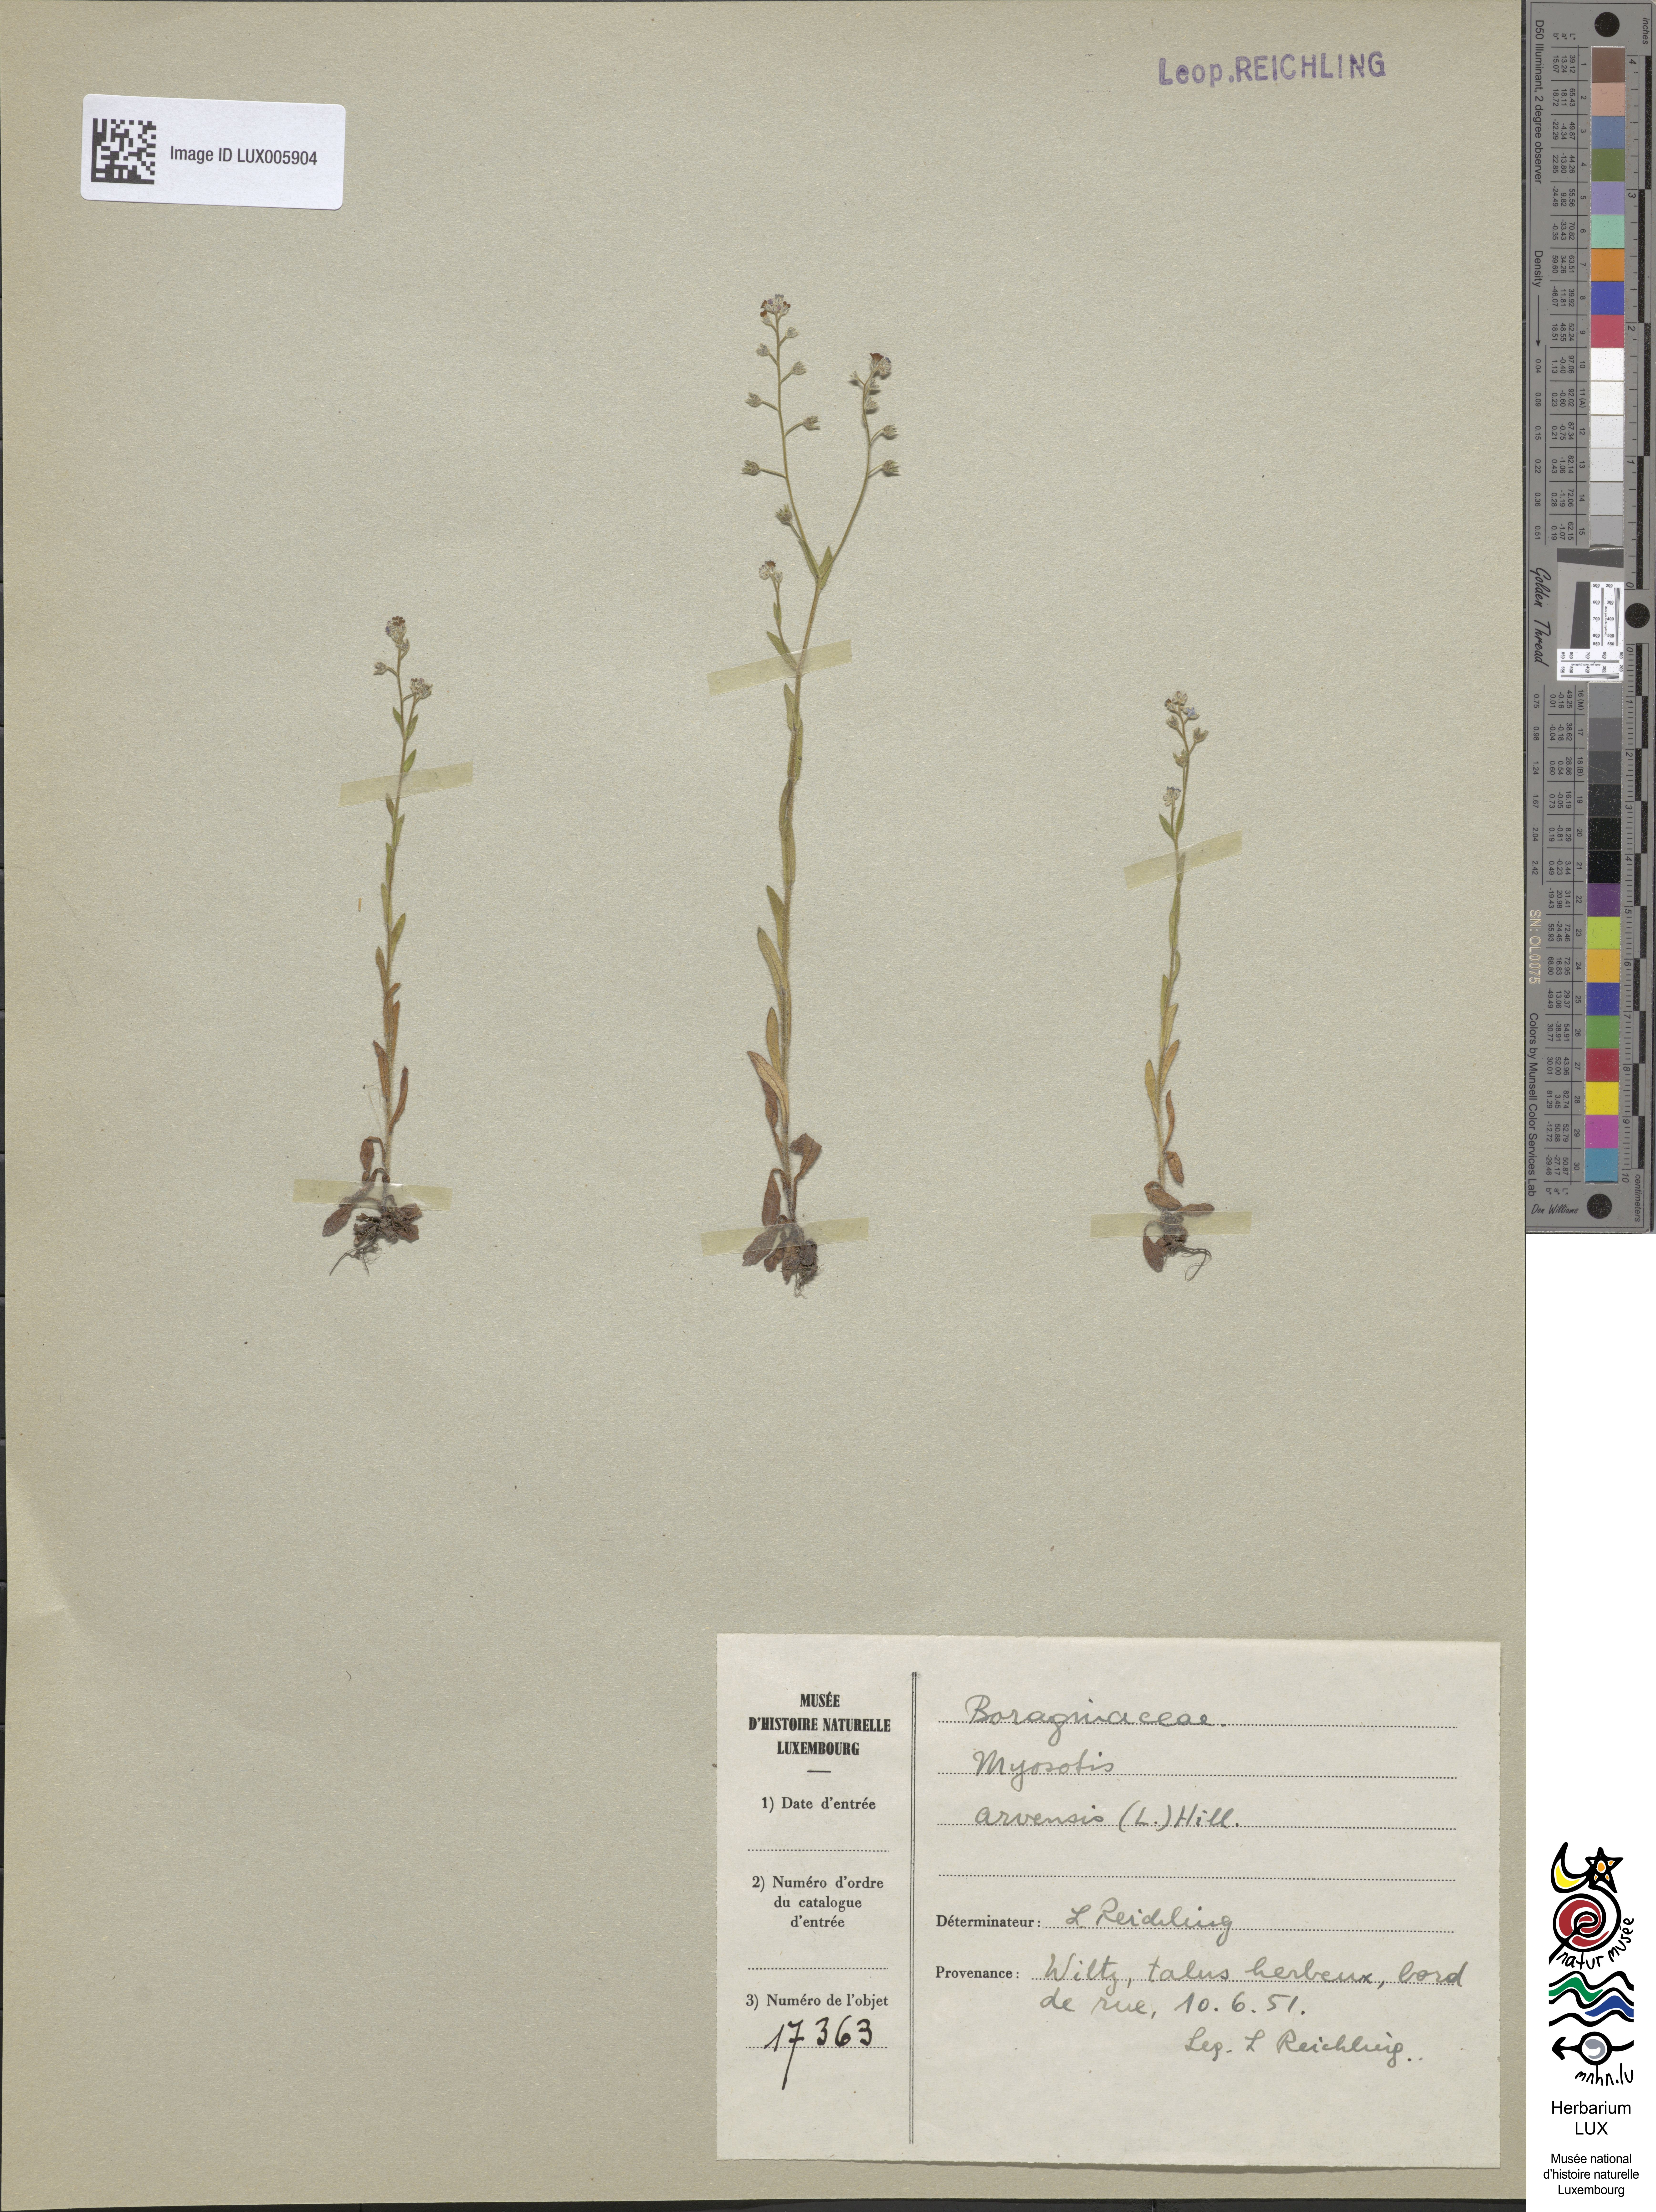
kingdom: Plantae
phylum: Tracheophyta
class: Magnoliopsida
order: Boraginales
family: Boraginaceae
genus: Myosotis
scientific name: Myosotis arvensis
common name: Field forget-me-not
